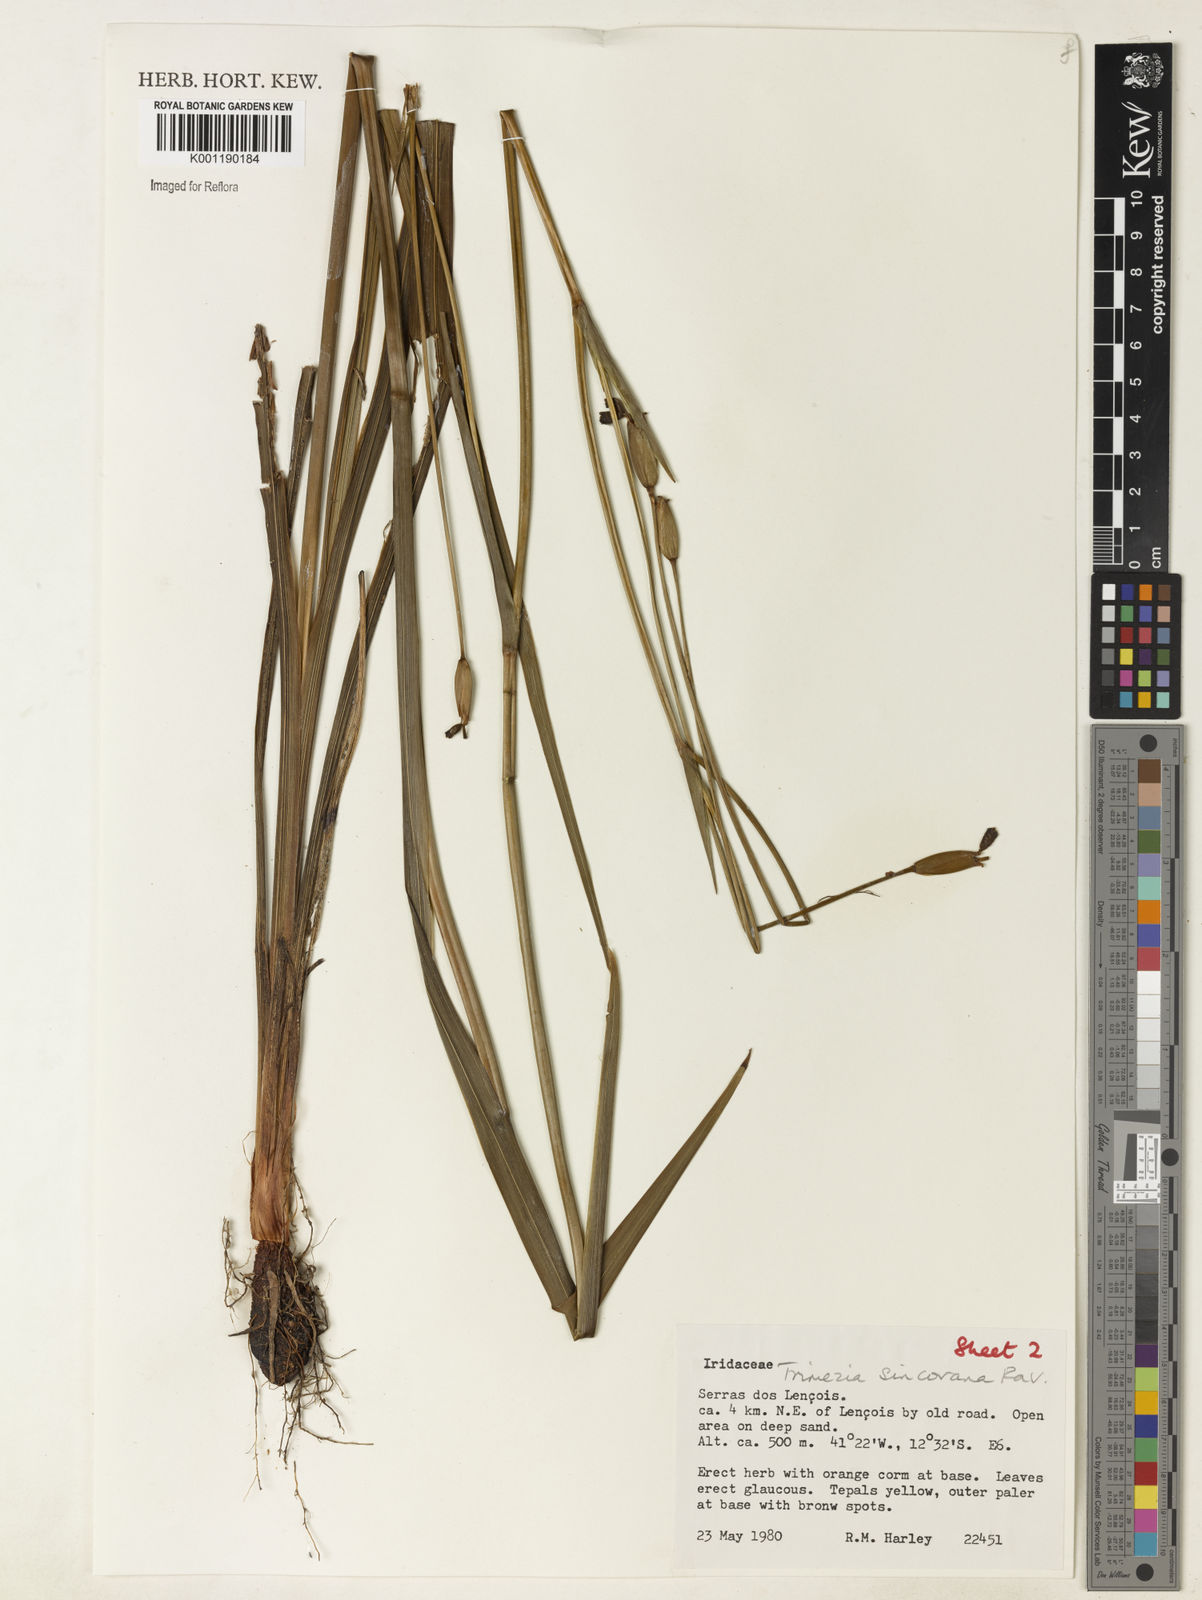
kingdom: Plantae
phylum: Tracheophyta
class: Liliopsida
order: Asparagales
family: Iridaceae
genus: Trimezia
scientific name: Trimezia spathata
